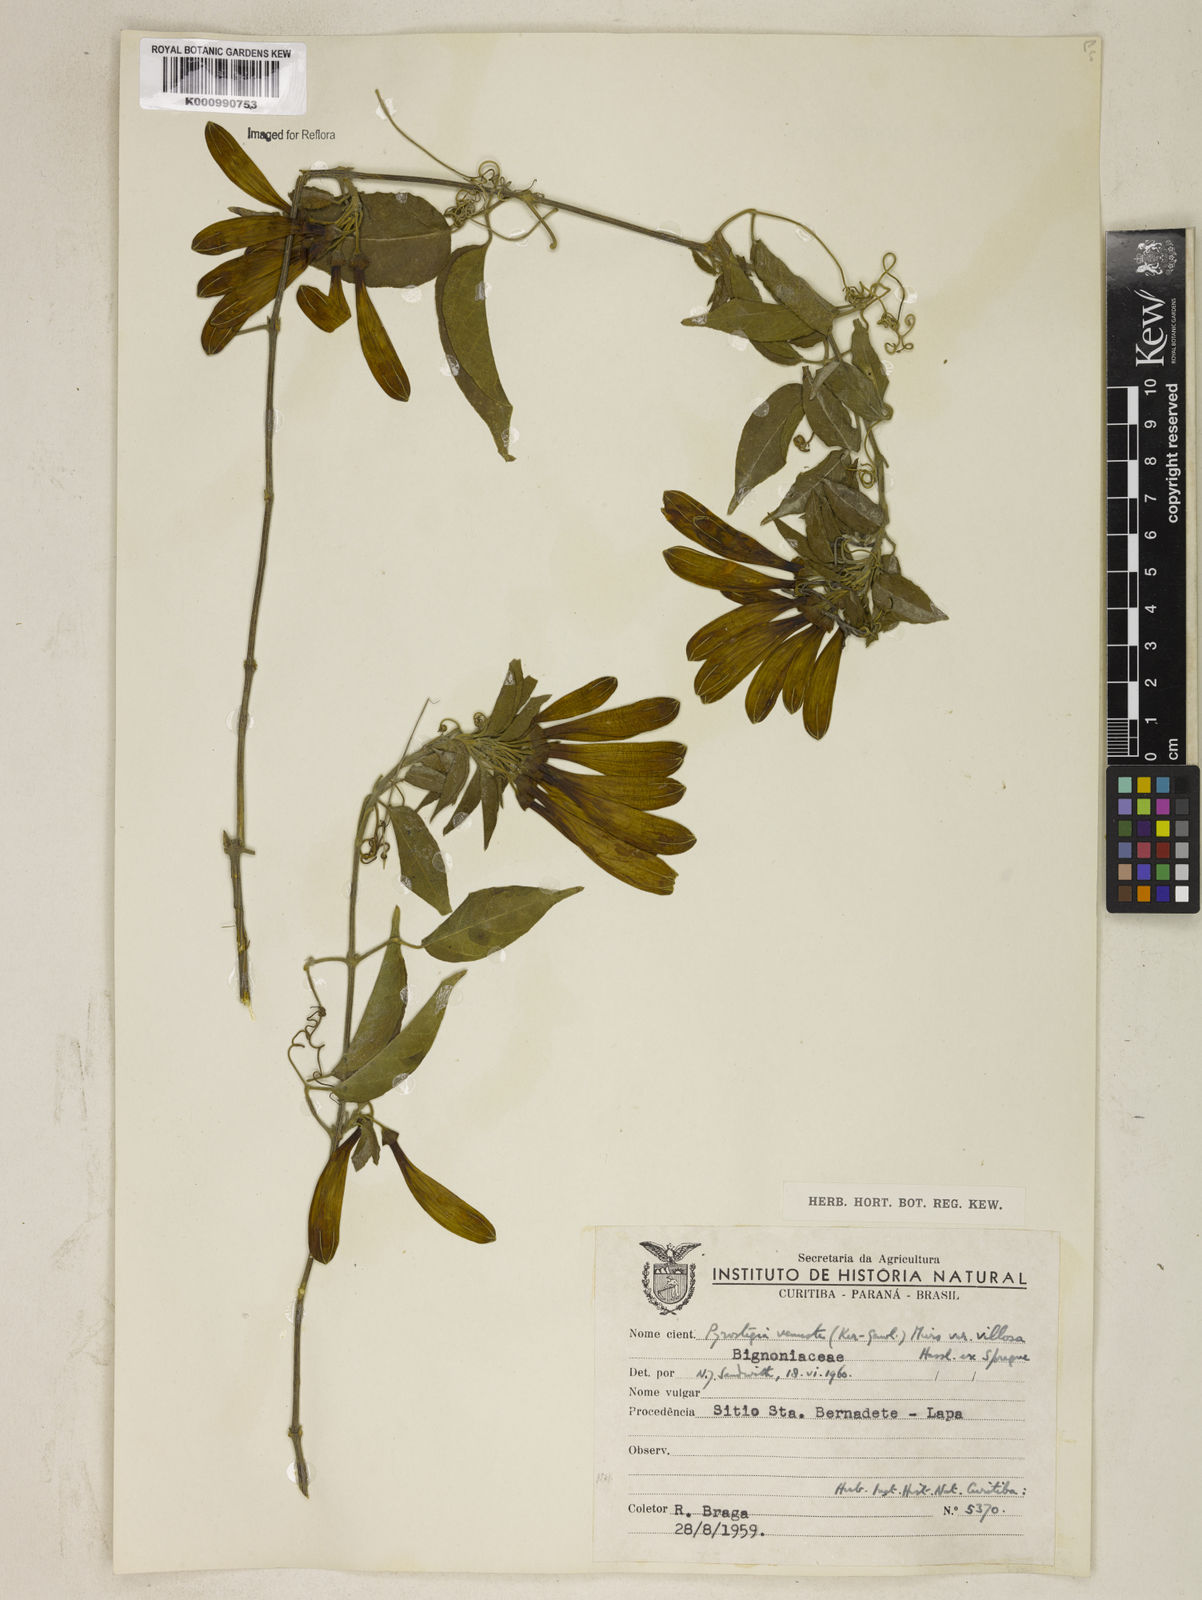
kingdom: Plantae
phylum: Tracheophyta
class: Magnoliopsida
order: Lamiales
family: Bignoniaceae
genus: Pyrostegia
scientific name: Pyrostegia venusta
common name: Flamevine
